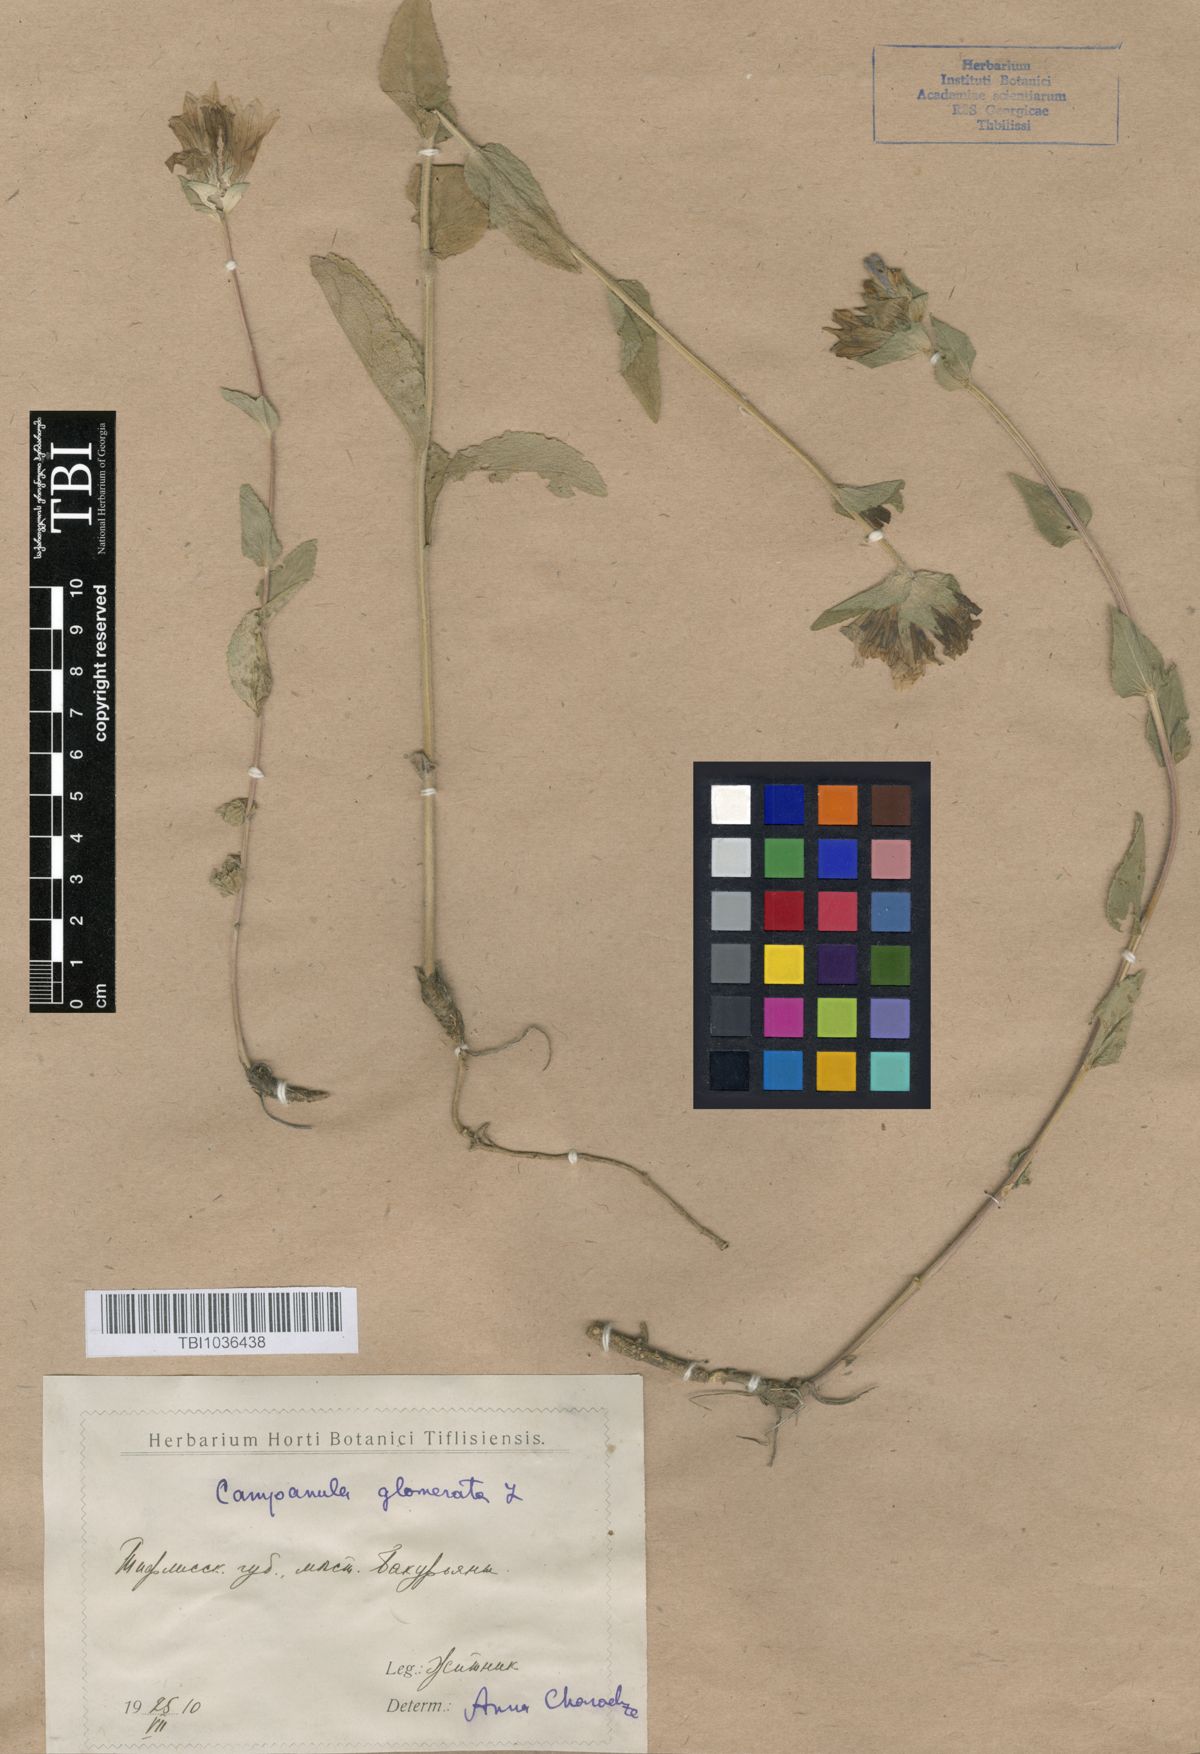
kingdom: Plantae
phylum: Tracheophyta
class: Magnoliopsida
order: Asterales
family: Campanulaceae
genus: Campanula
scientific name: Campanula glomerata
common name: Clustered bellflower
